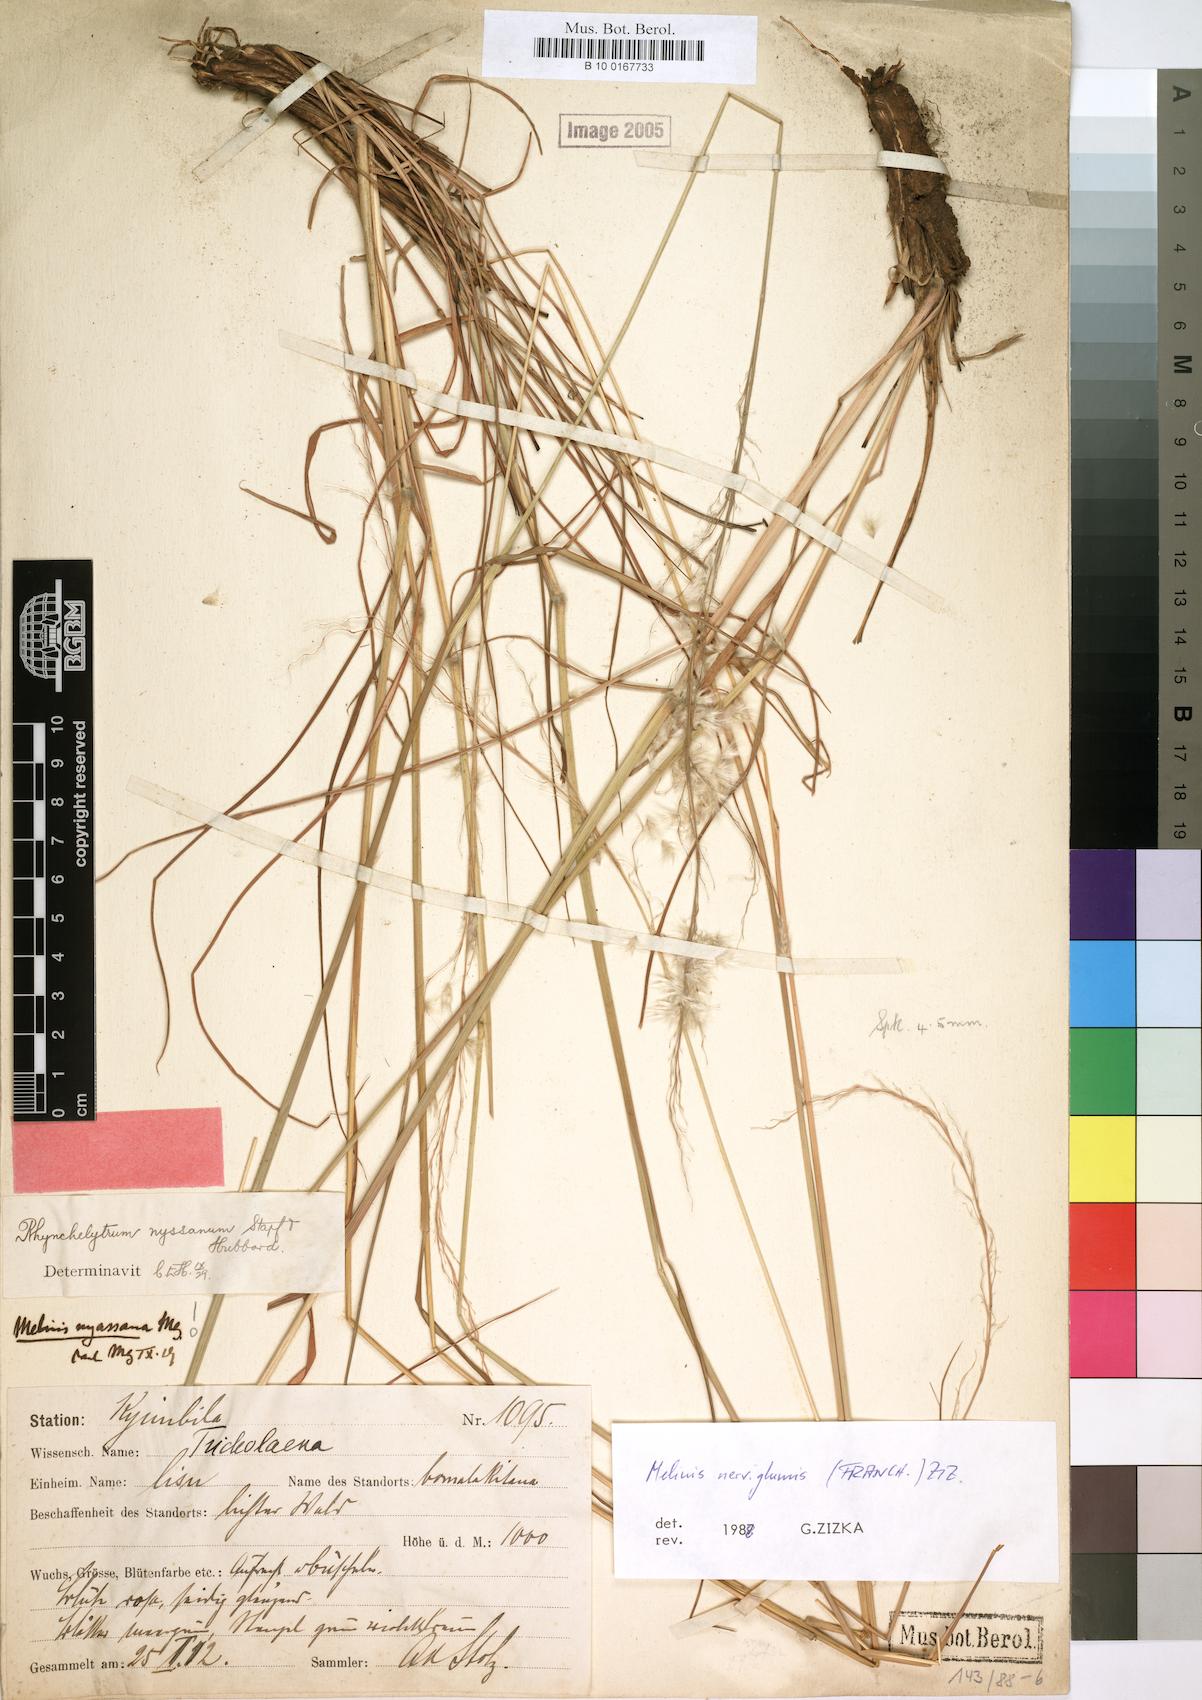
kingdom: Plantae
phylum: Tracheophyta
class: Liliopsida
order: Poales
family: Poaceae
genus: Melinis
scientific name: Melinis nerviglumis
